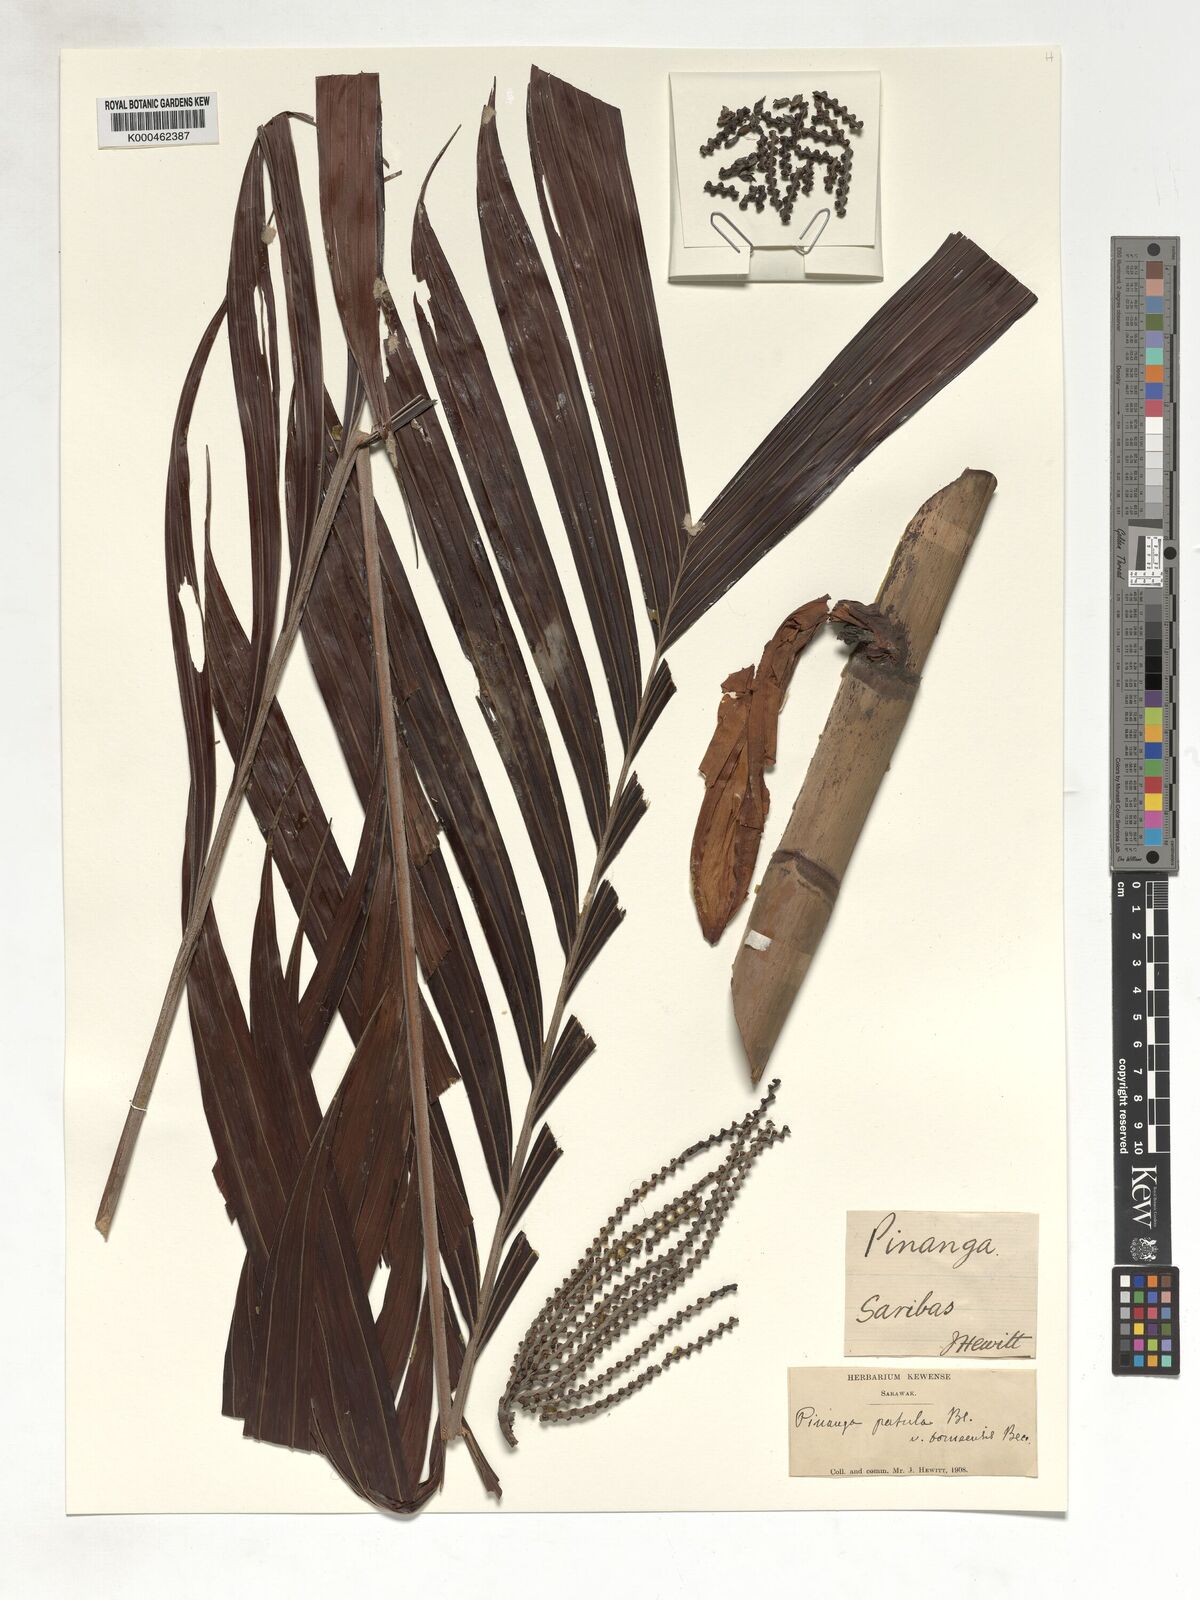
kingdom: Plantae
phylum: Tracheophyta
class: Liliopsida
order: Arecales
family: Arecaceae
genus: Pinanga
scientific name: Pinanga patula
